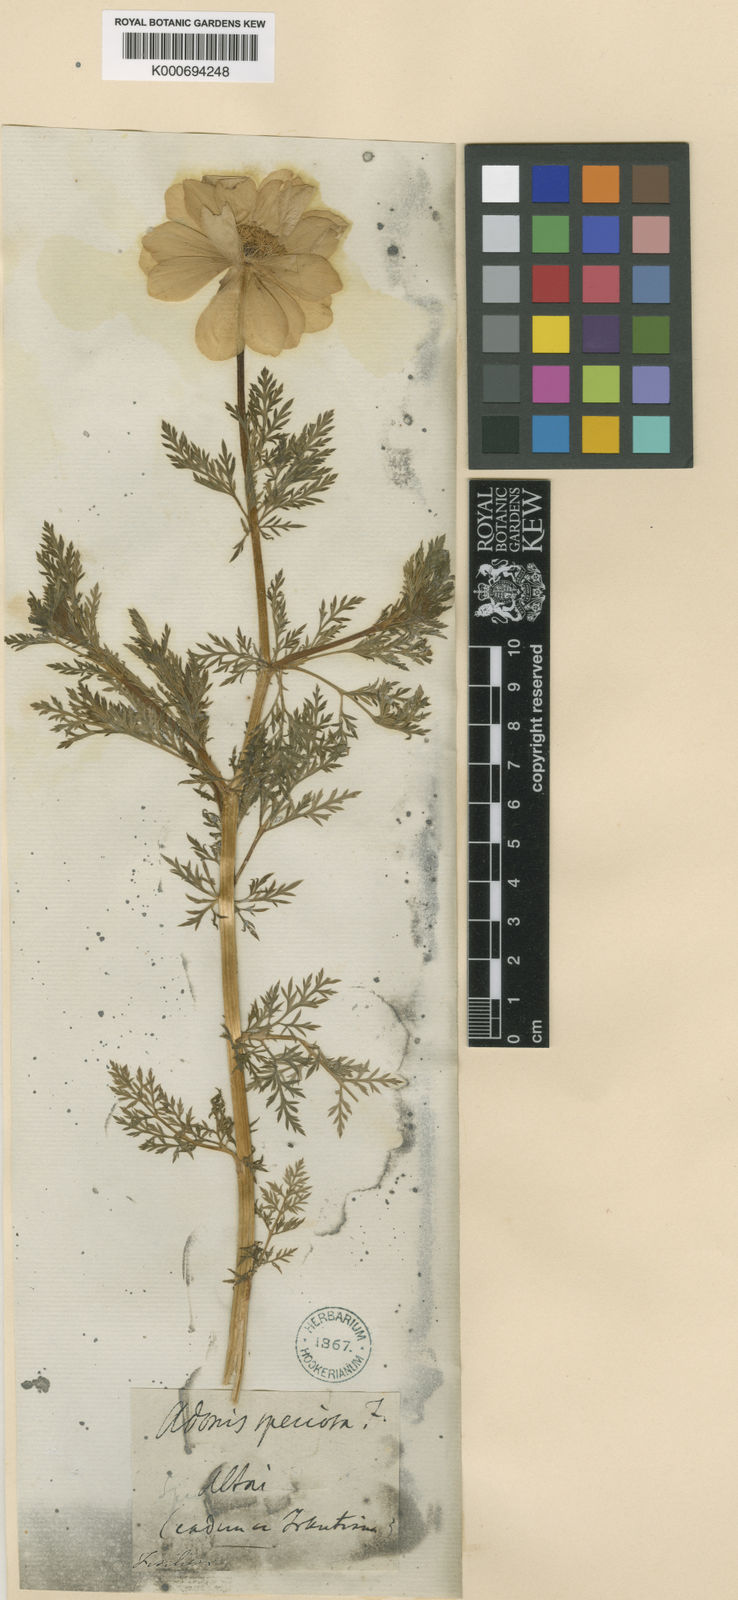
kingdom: Plantae
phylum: Tracheophyta
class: Magnoliopsida
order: Ranunculales
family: Ranunculaceae
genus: Adonis
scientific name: Adonis vernalis
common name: Yellow pheasants-eye
